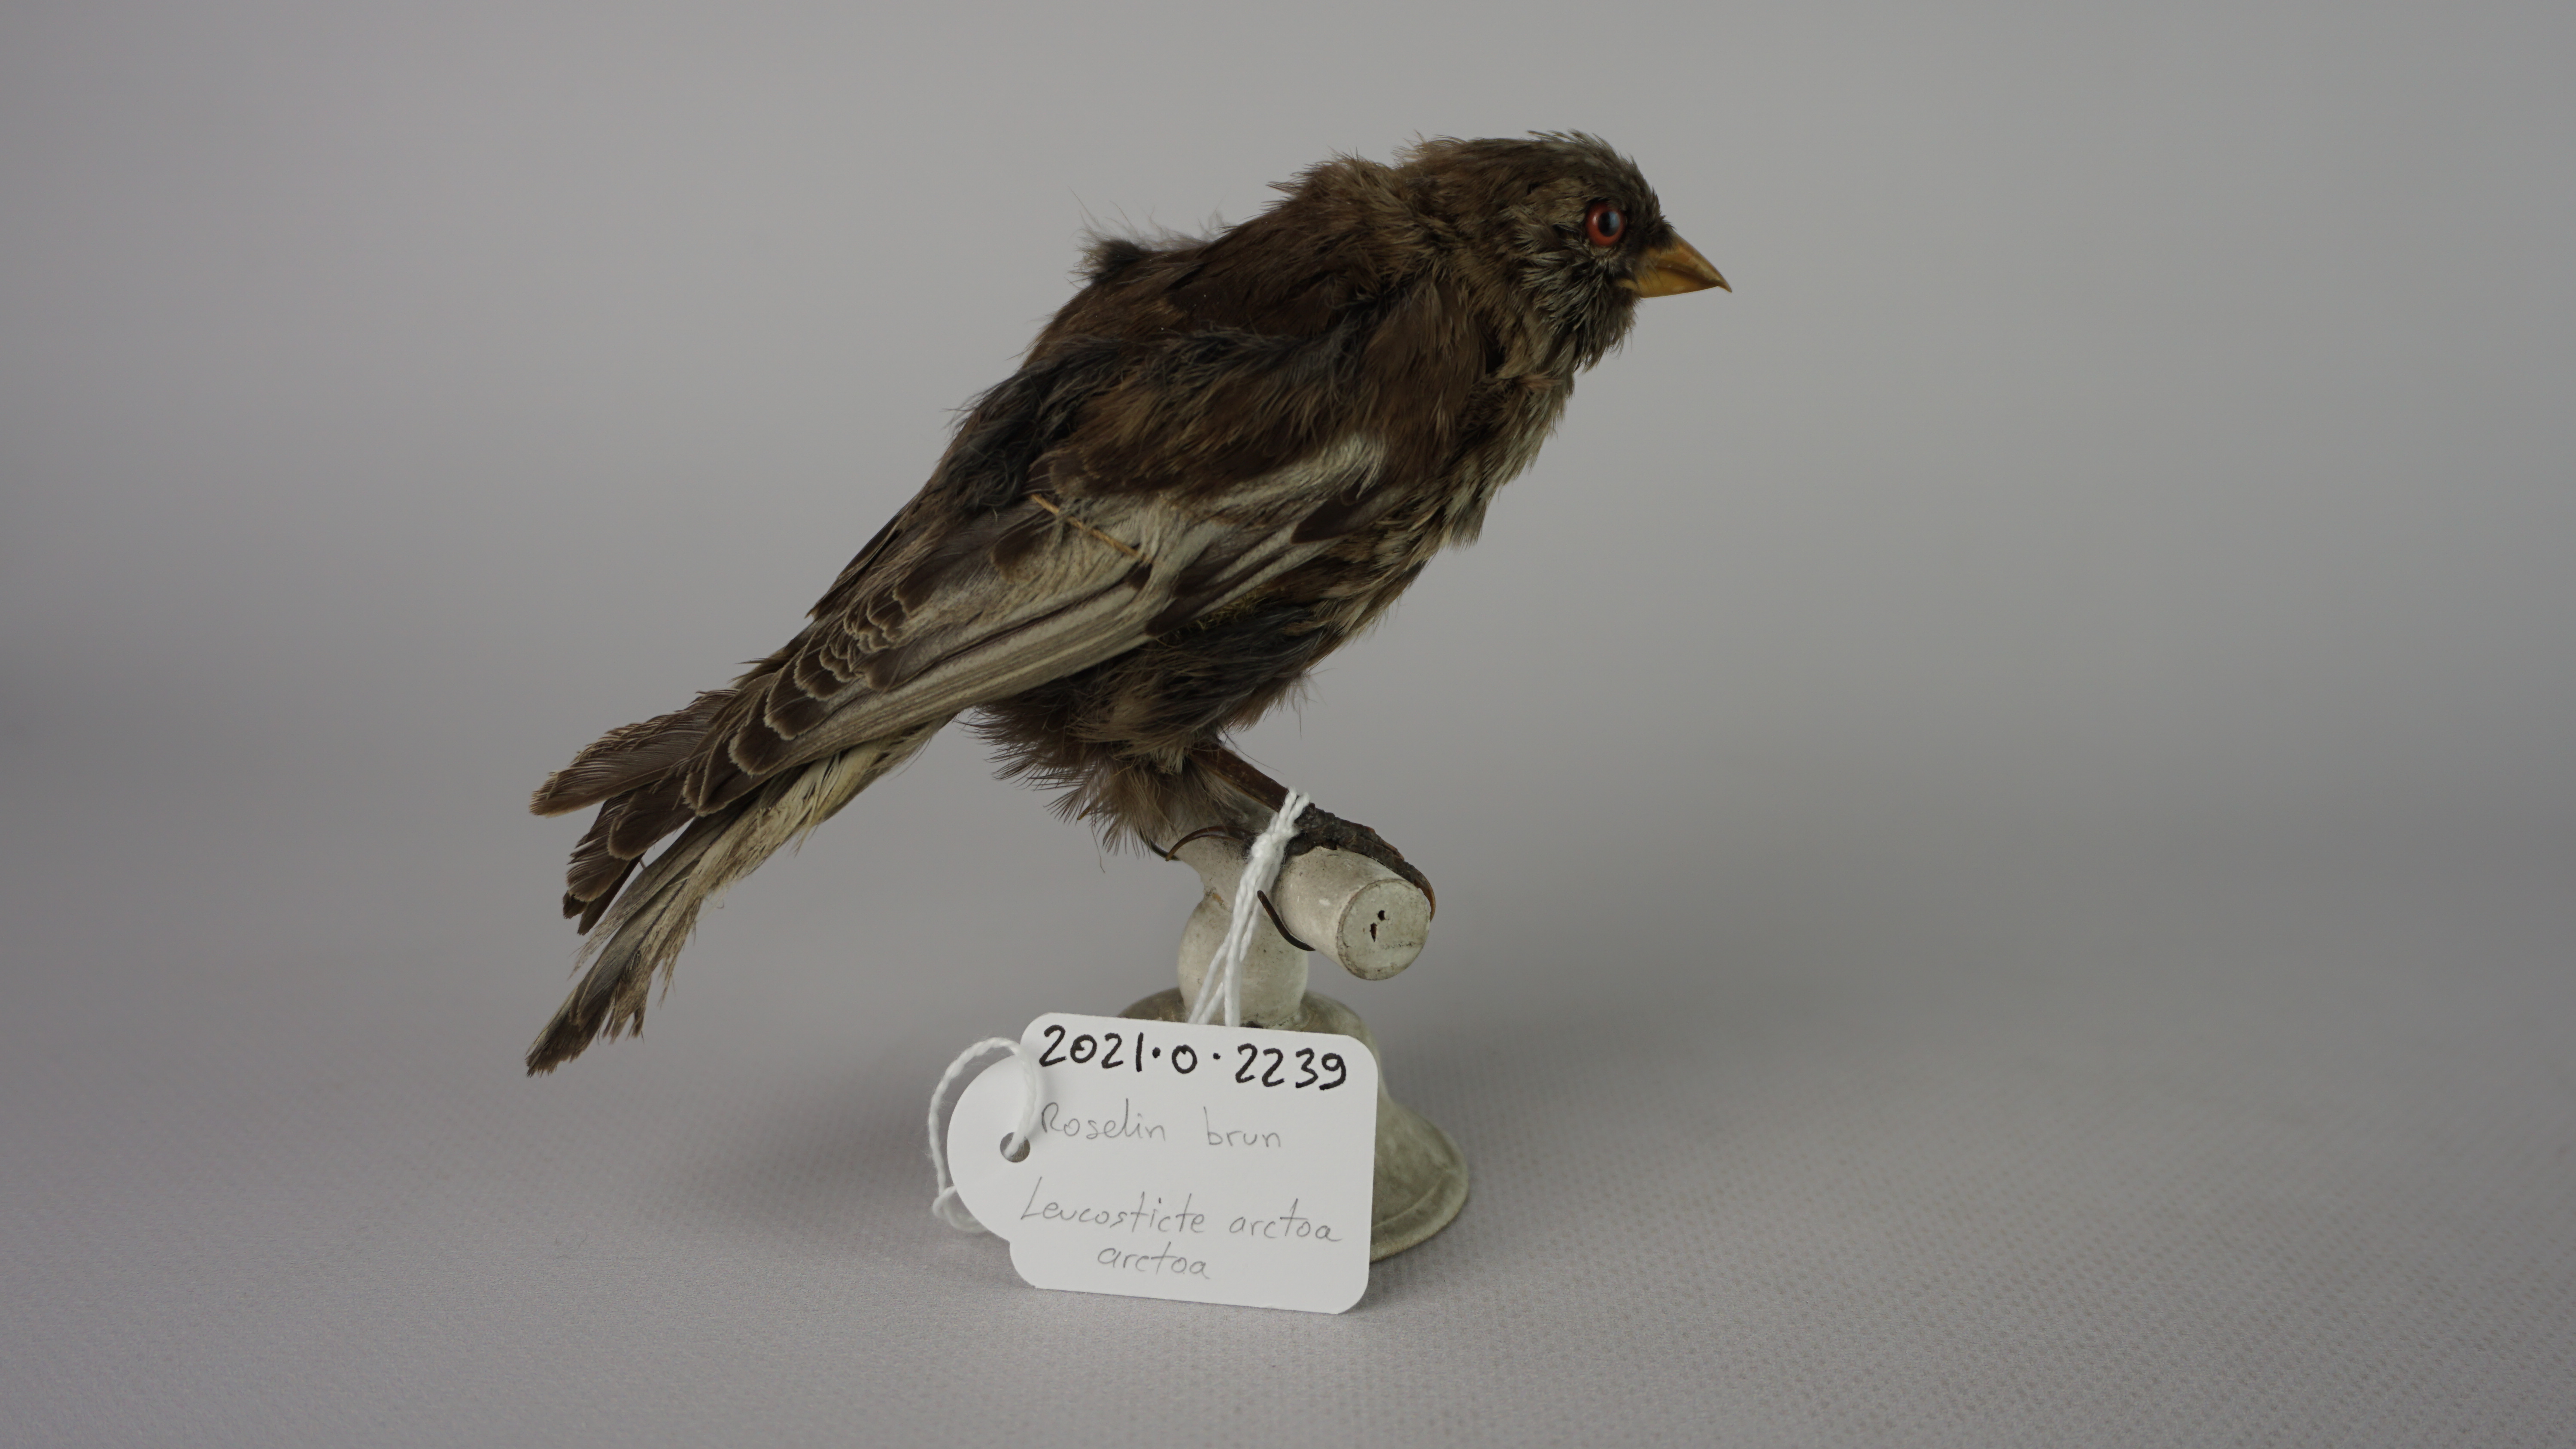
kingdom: Animalia
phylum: Chordata
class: Aves
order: Passeriformes
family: Fringillidae
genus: Leucosticte
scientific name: Leucosticte arctoa
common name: Asian rosy finch
